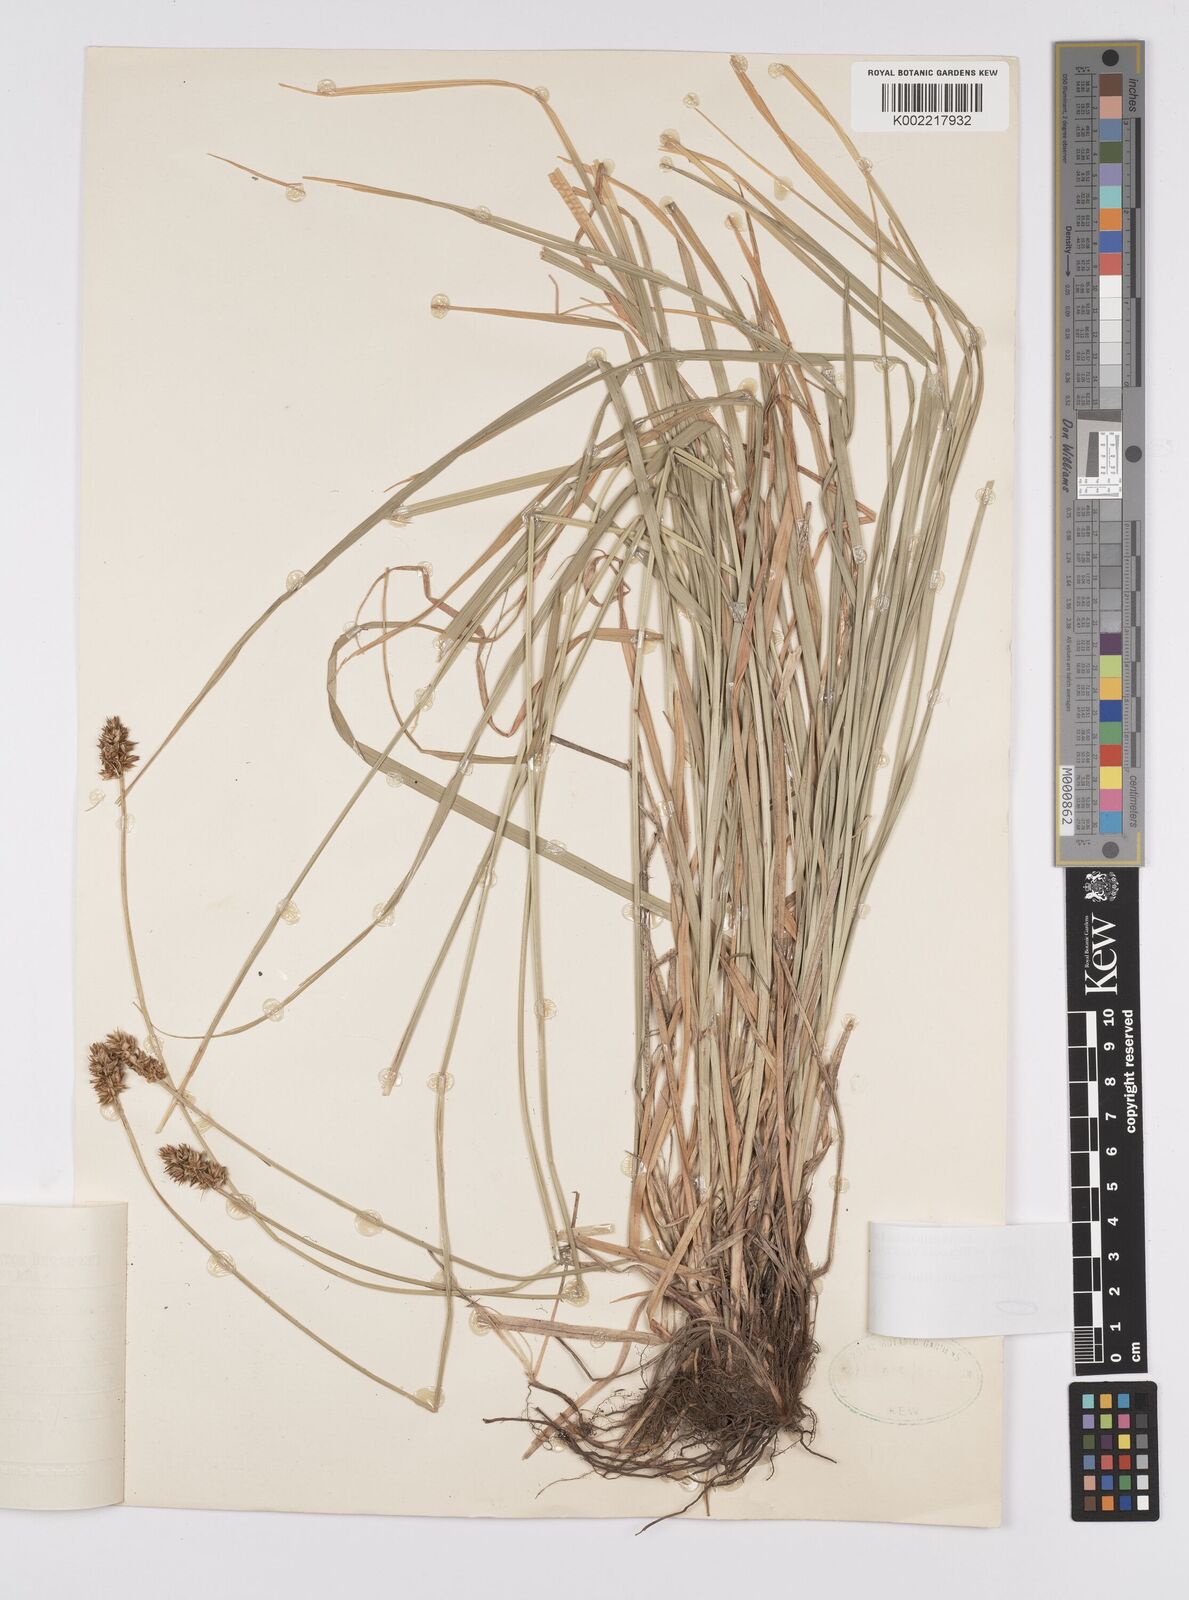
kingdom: Plantae
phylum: Tracheophyta
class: Liliopsida
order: Poales
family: Cyperaceae
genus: Carex
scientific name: Carex spicata
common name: Spiked sedge
